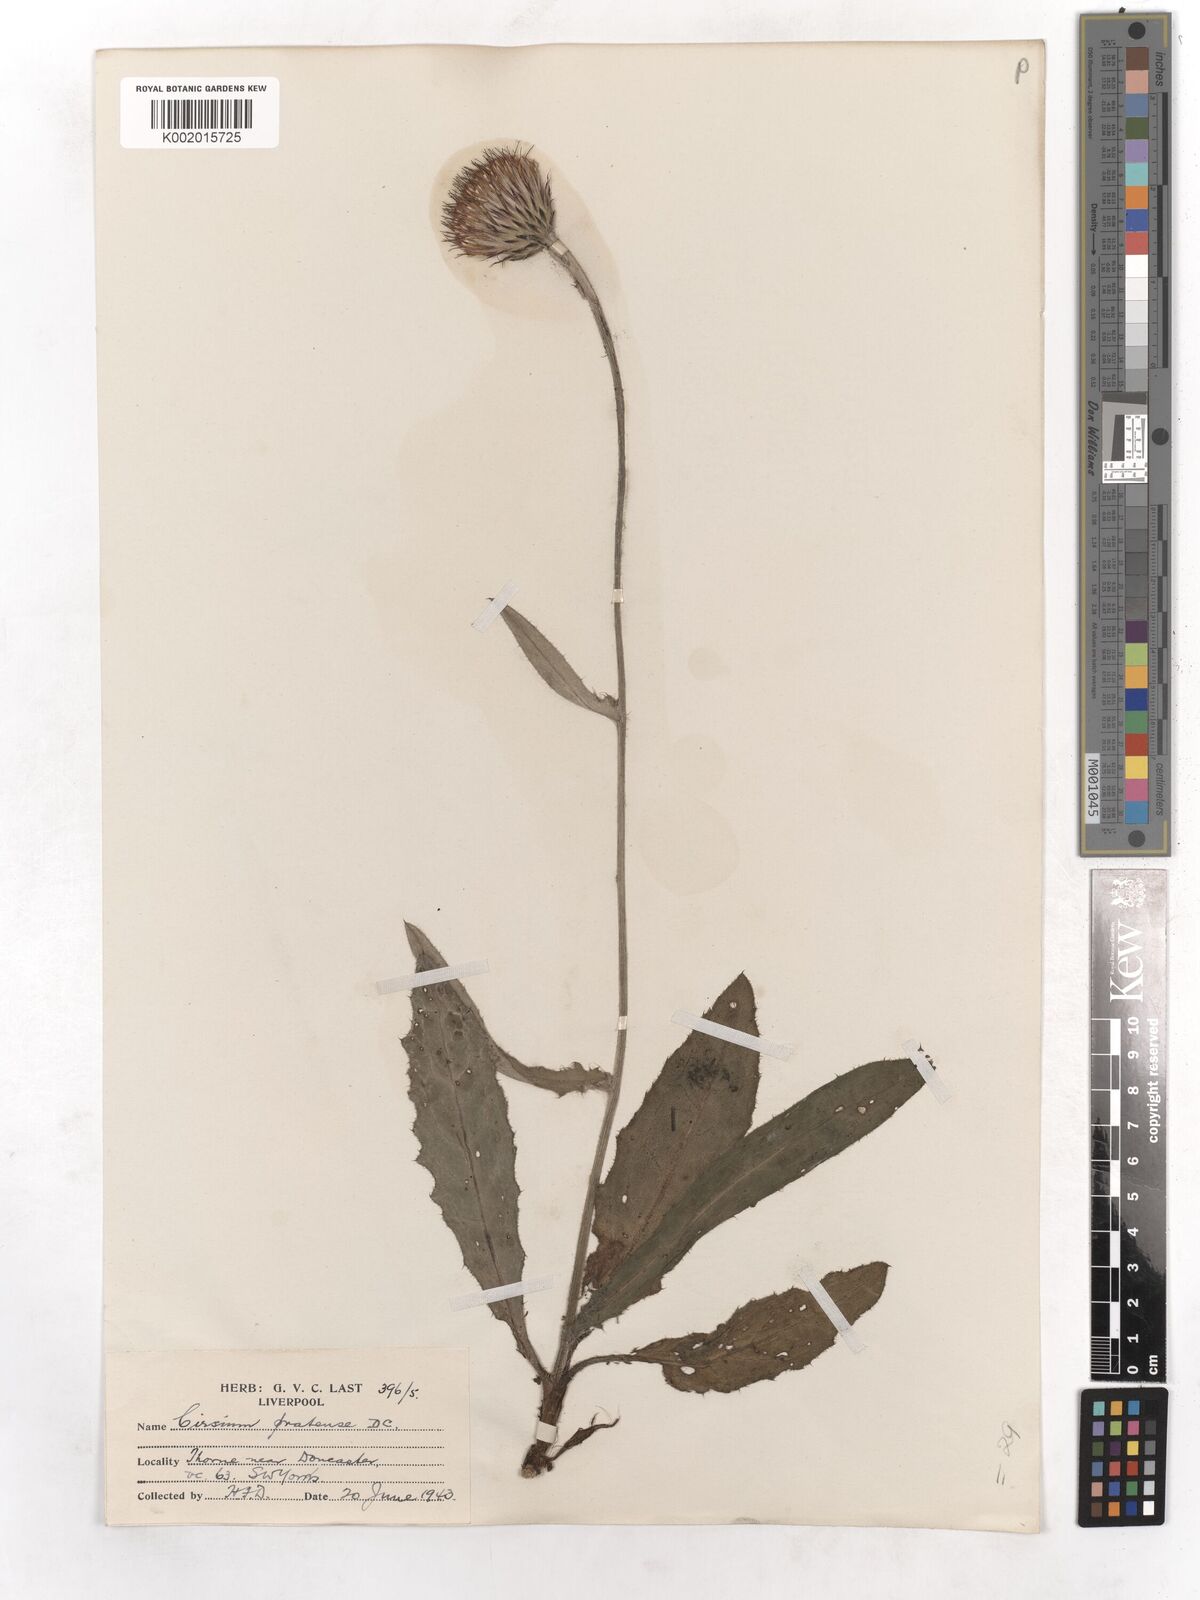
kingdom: Plantae
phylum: Tracheophyta
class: Magnoliopsida
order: Asterales
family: Asteraceae
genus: Cirsium
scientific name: Cirsium dissectum
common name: Meadow thistle
